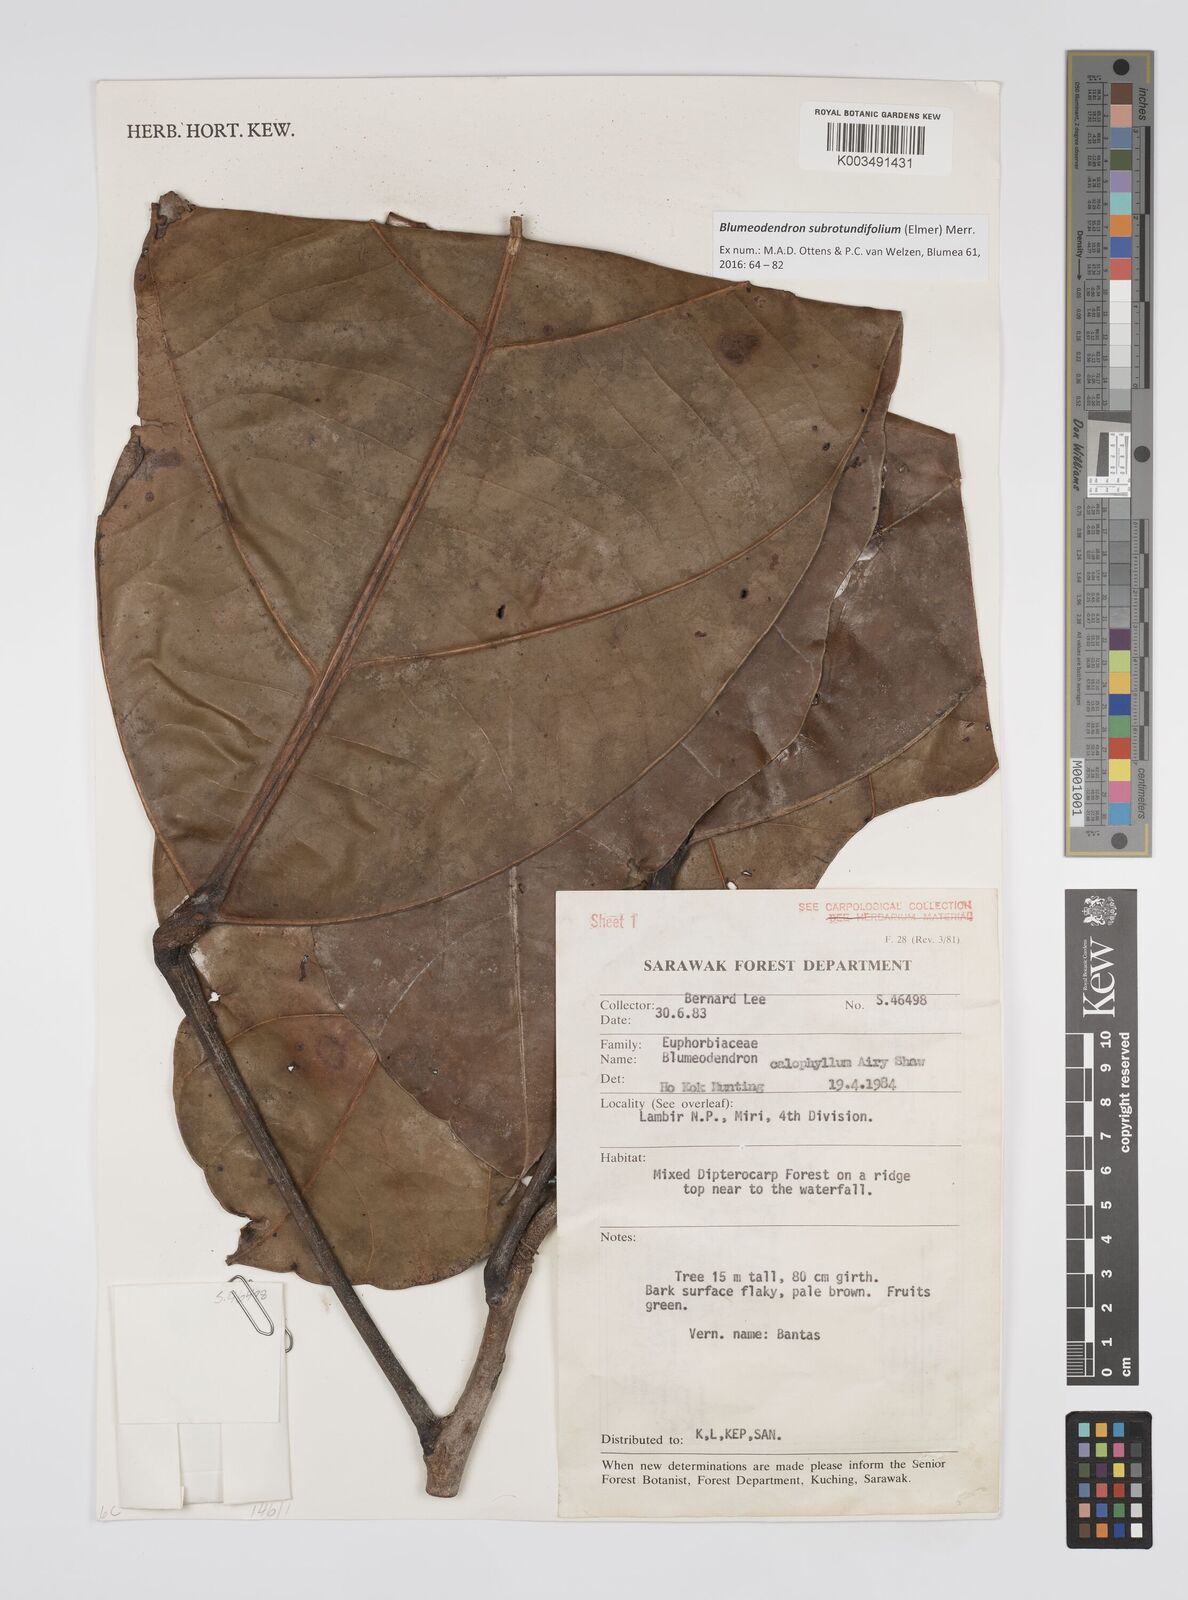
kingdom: Plantae
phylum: Tracheophyta
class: Magnoliopsida
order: Malpighiales
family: Euphorbiaceae
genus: Blumeodendron
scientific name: Blumeodendron subrotundifolium
